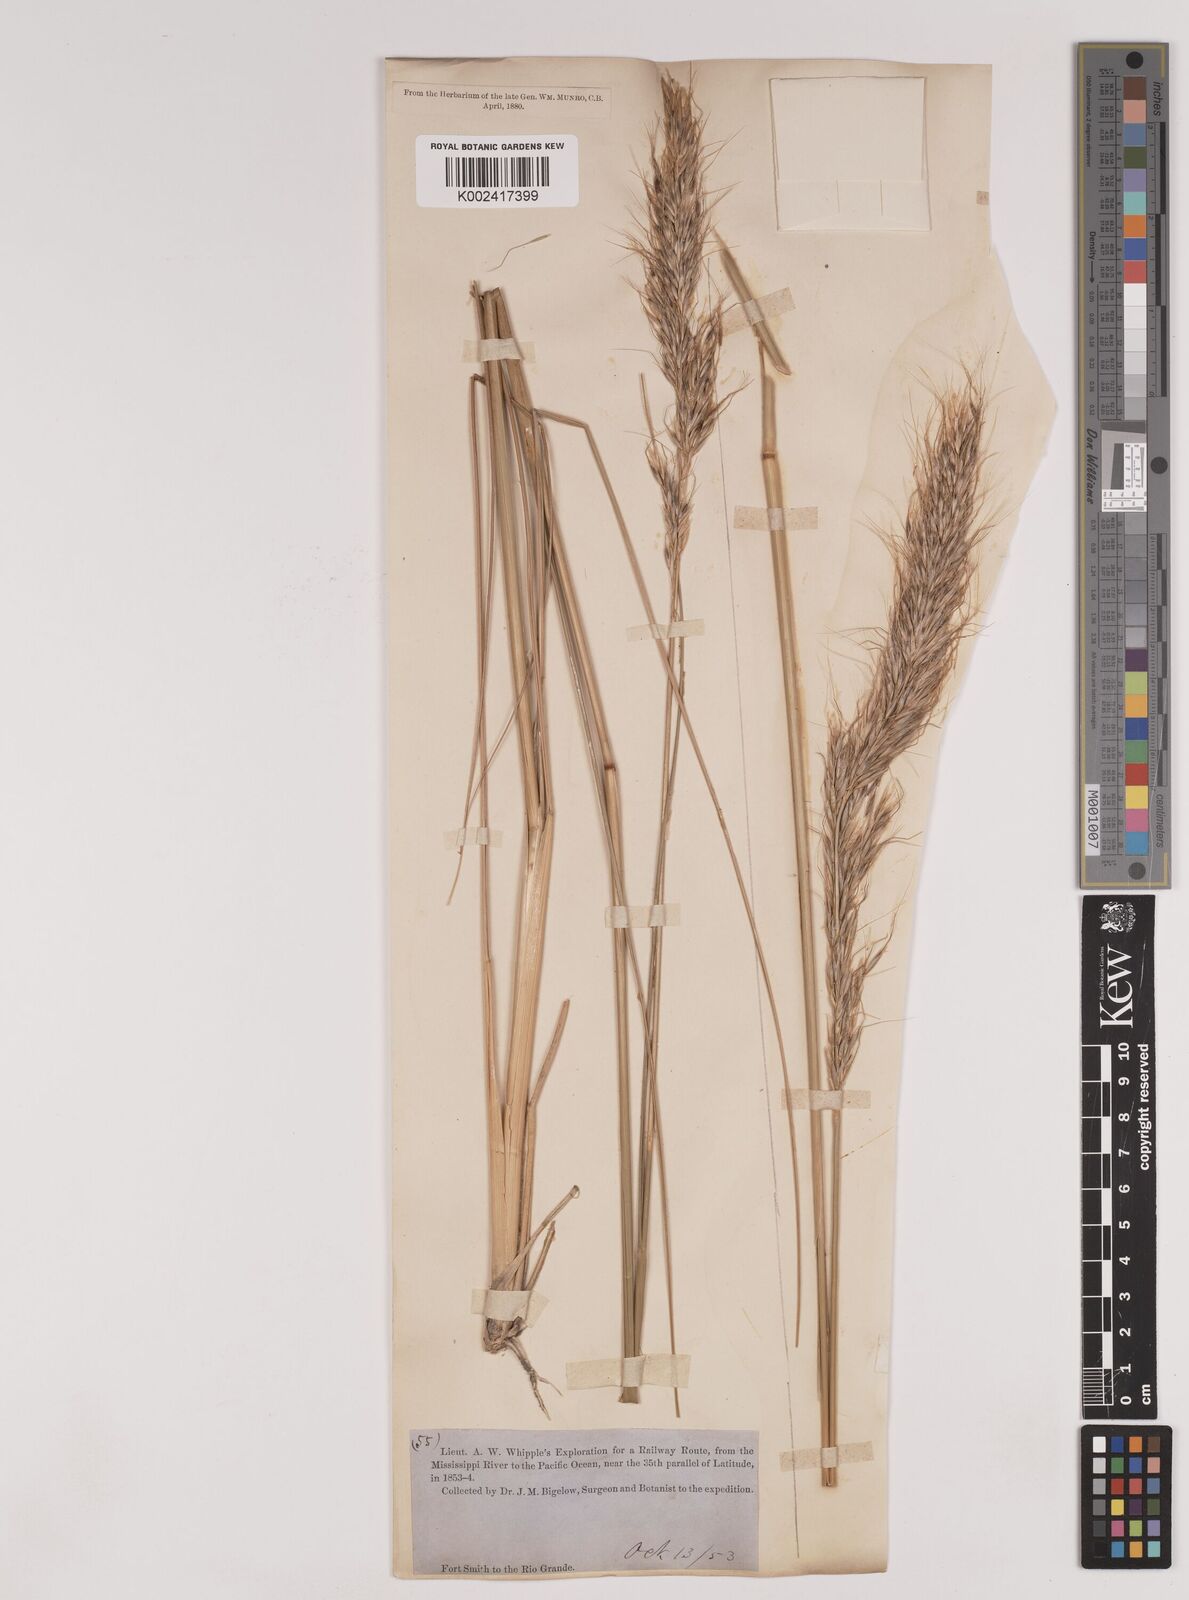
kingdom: Plantae
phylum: Tracheophyta
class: Liliopsida
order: Poales
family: Poaceae
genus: Nassella
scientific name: Nassella viridula
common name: Green needlegrass
